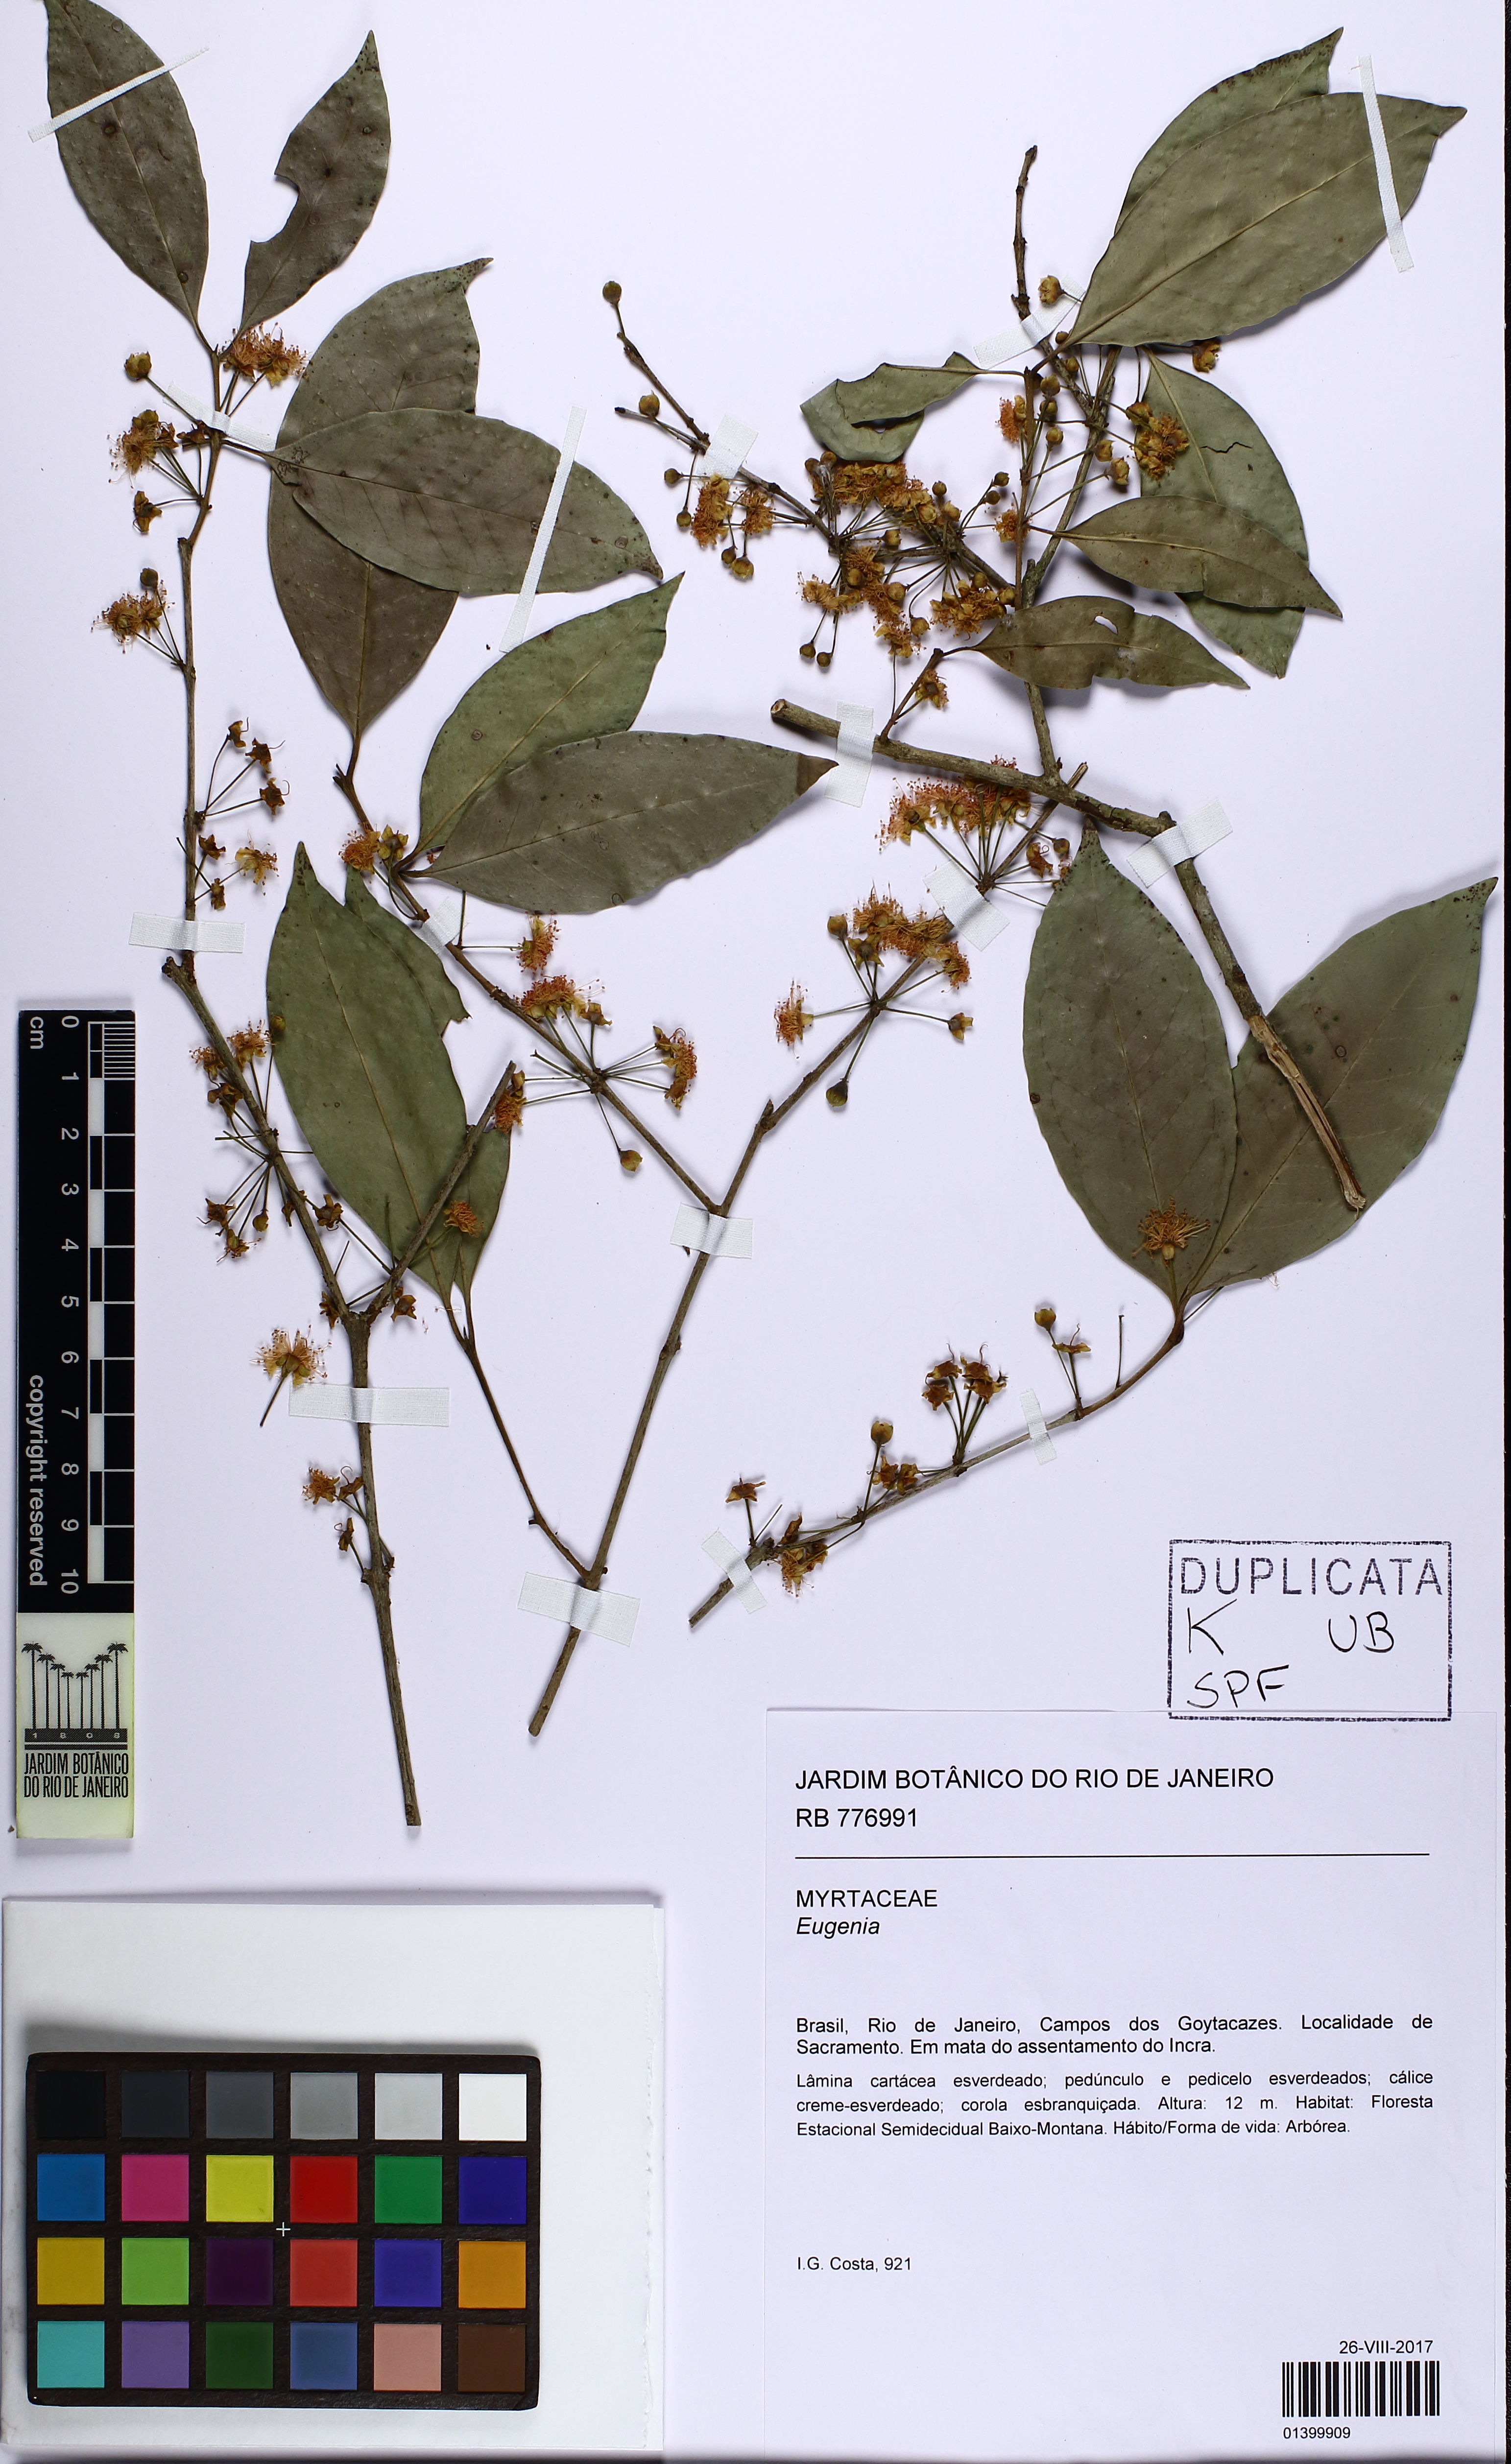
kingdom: Plantae
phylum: Tracheophyta
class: Magnoliopsida
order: Myrtales
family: Myrtaceae
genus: Eugenia
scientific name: Eugenia
